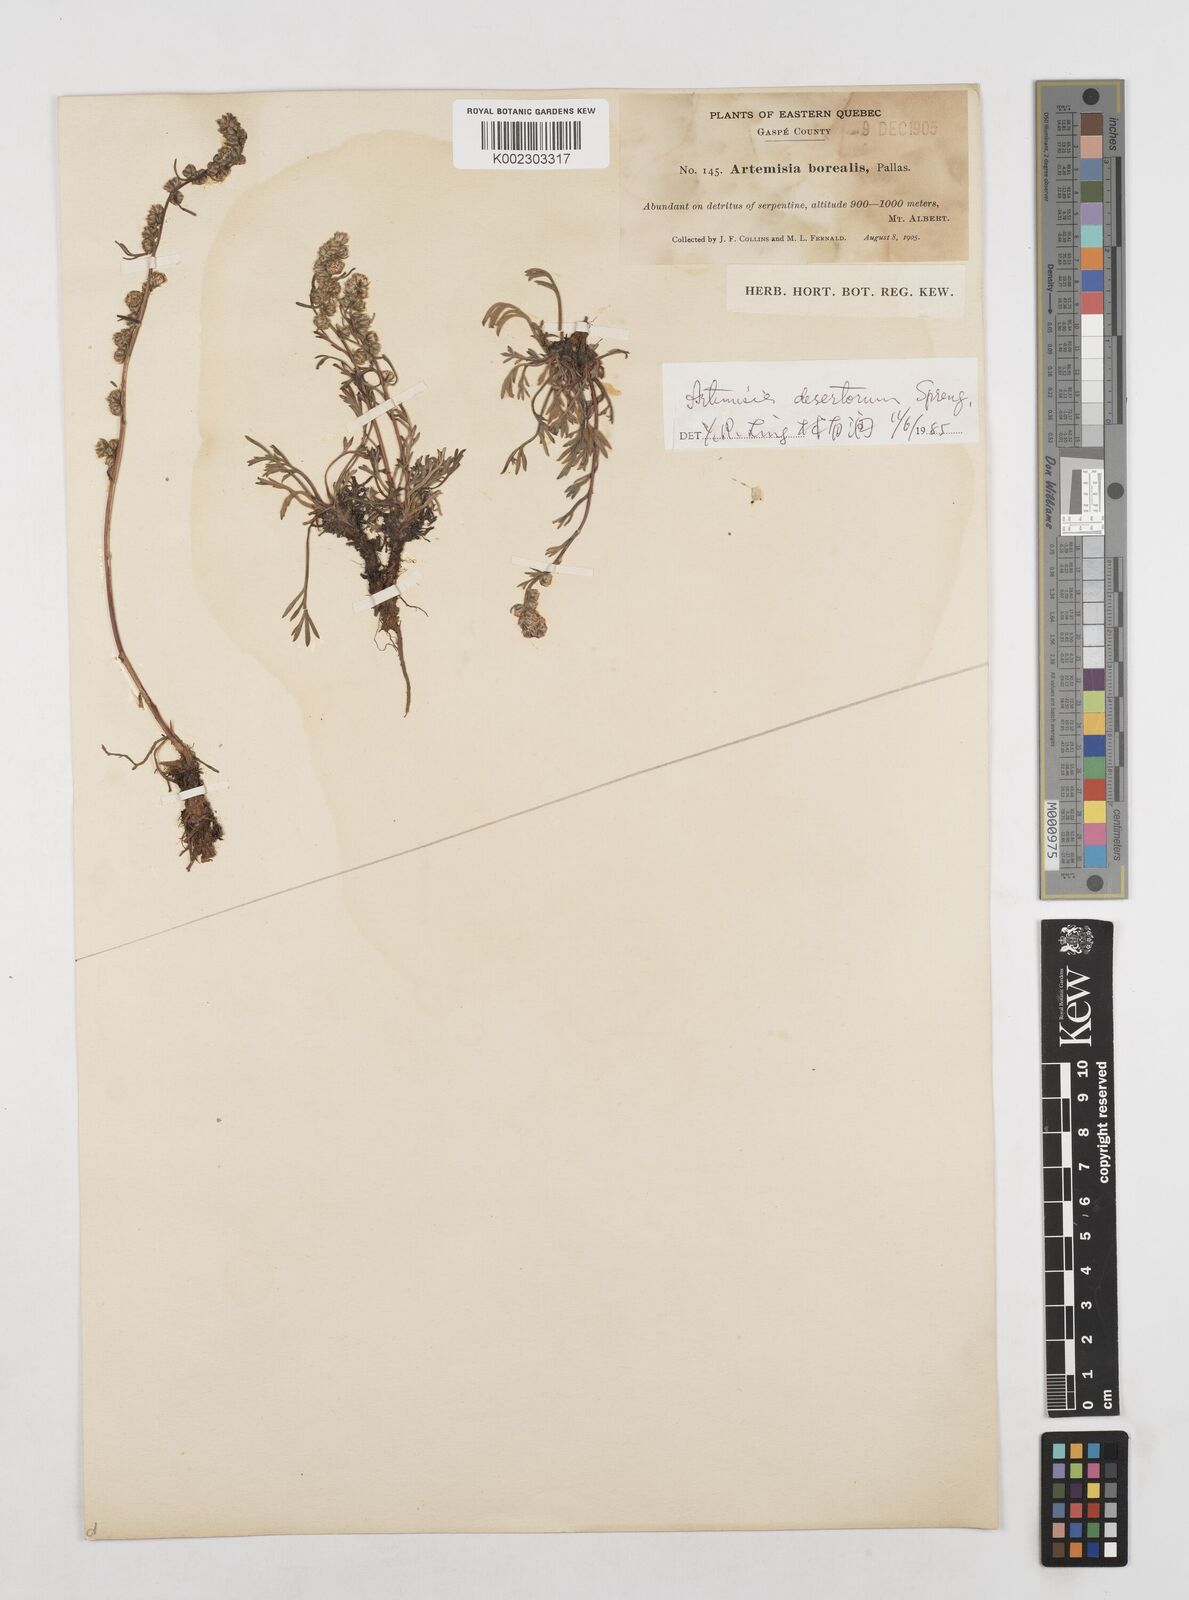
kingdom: Plantae
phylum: Tracheophyta
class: Magnoliopsida
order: Asterales
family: Asteraceae
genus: Artemisia
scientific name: Artemisia desertorum
